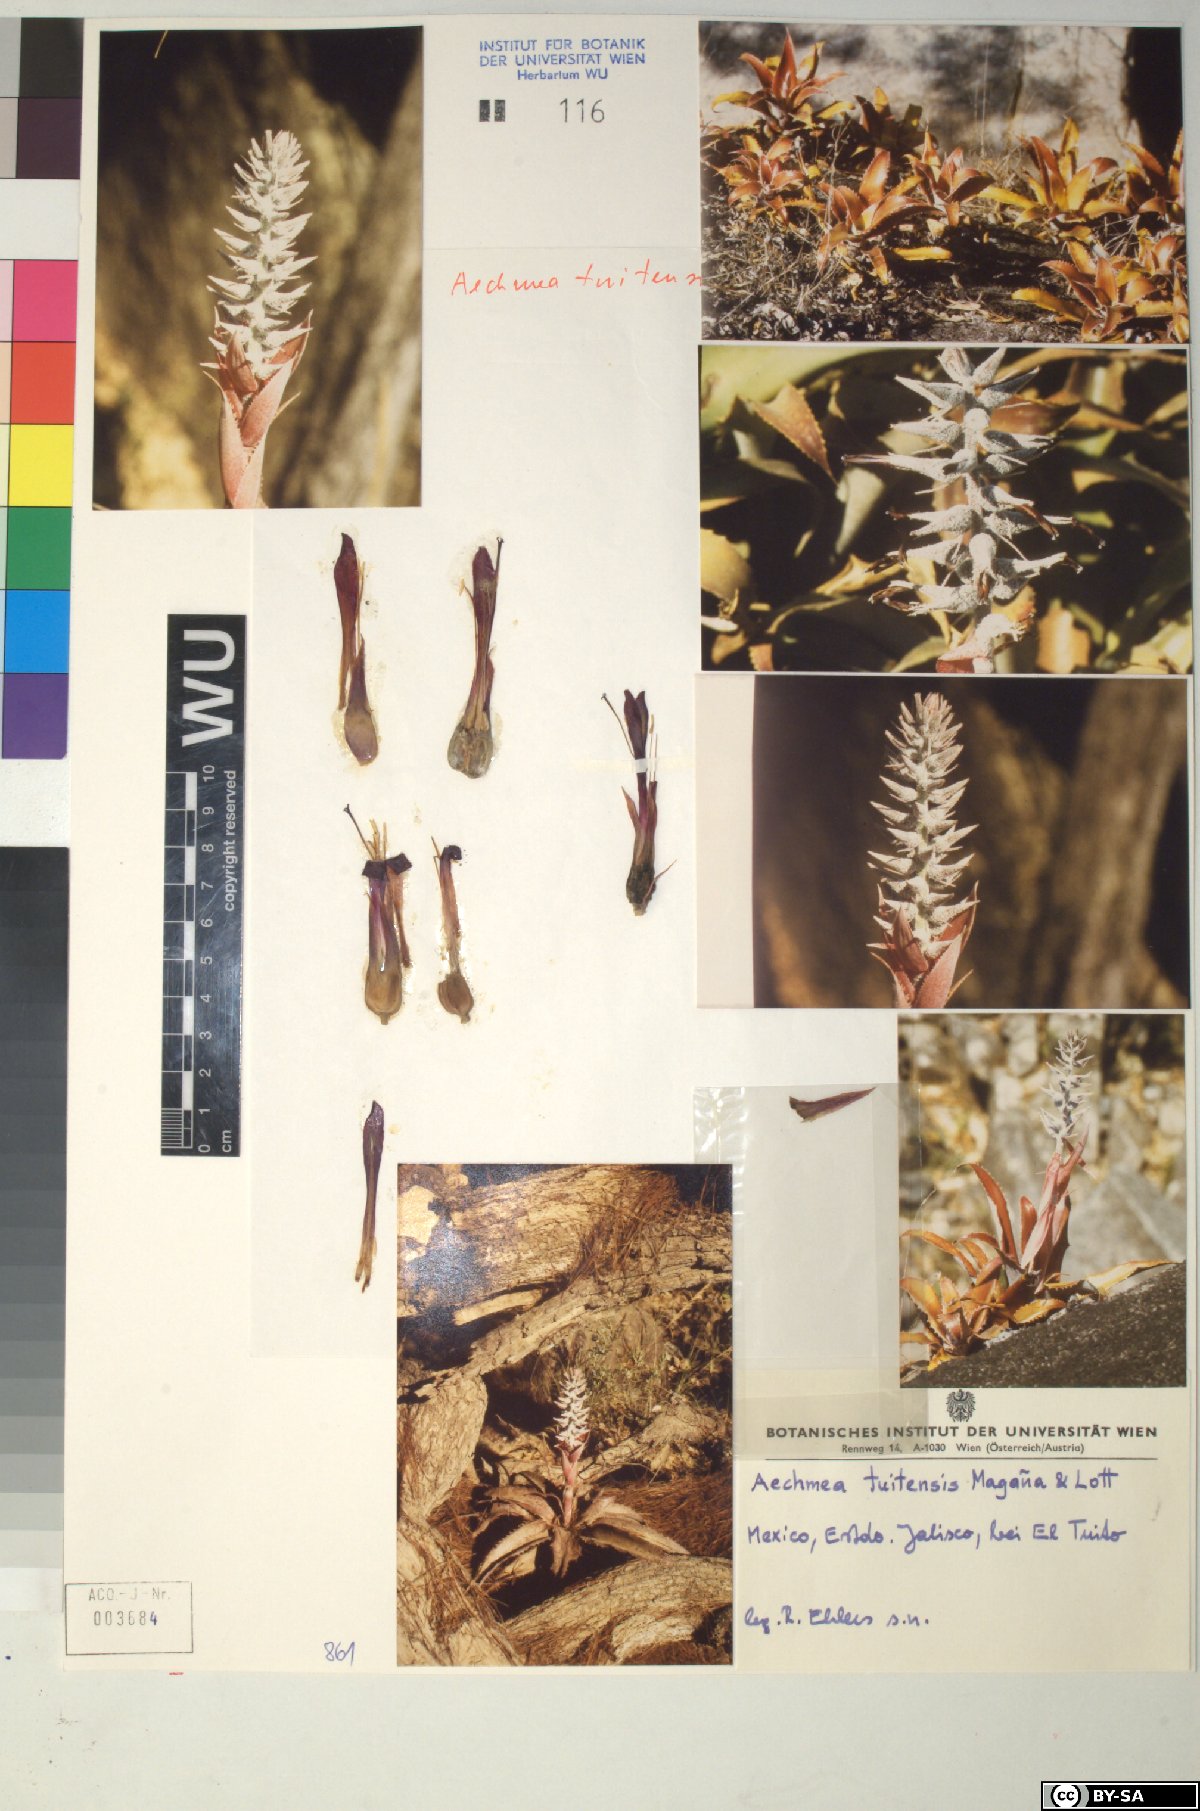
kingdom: Plantae
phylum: Tracheophyta
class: Liliopsida
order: Poales
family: Bromeliaceae
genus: Aechmea
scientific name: Aechmea
